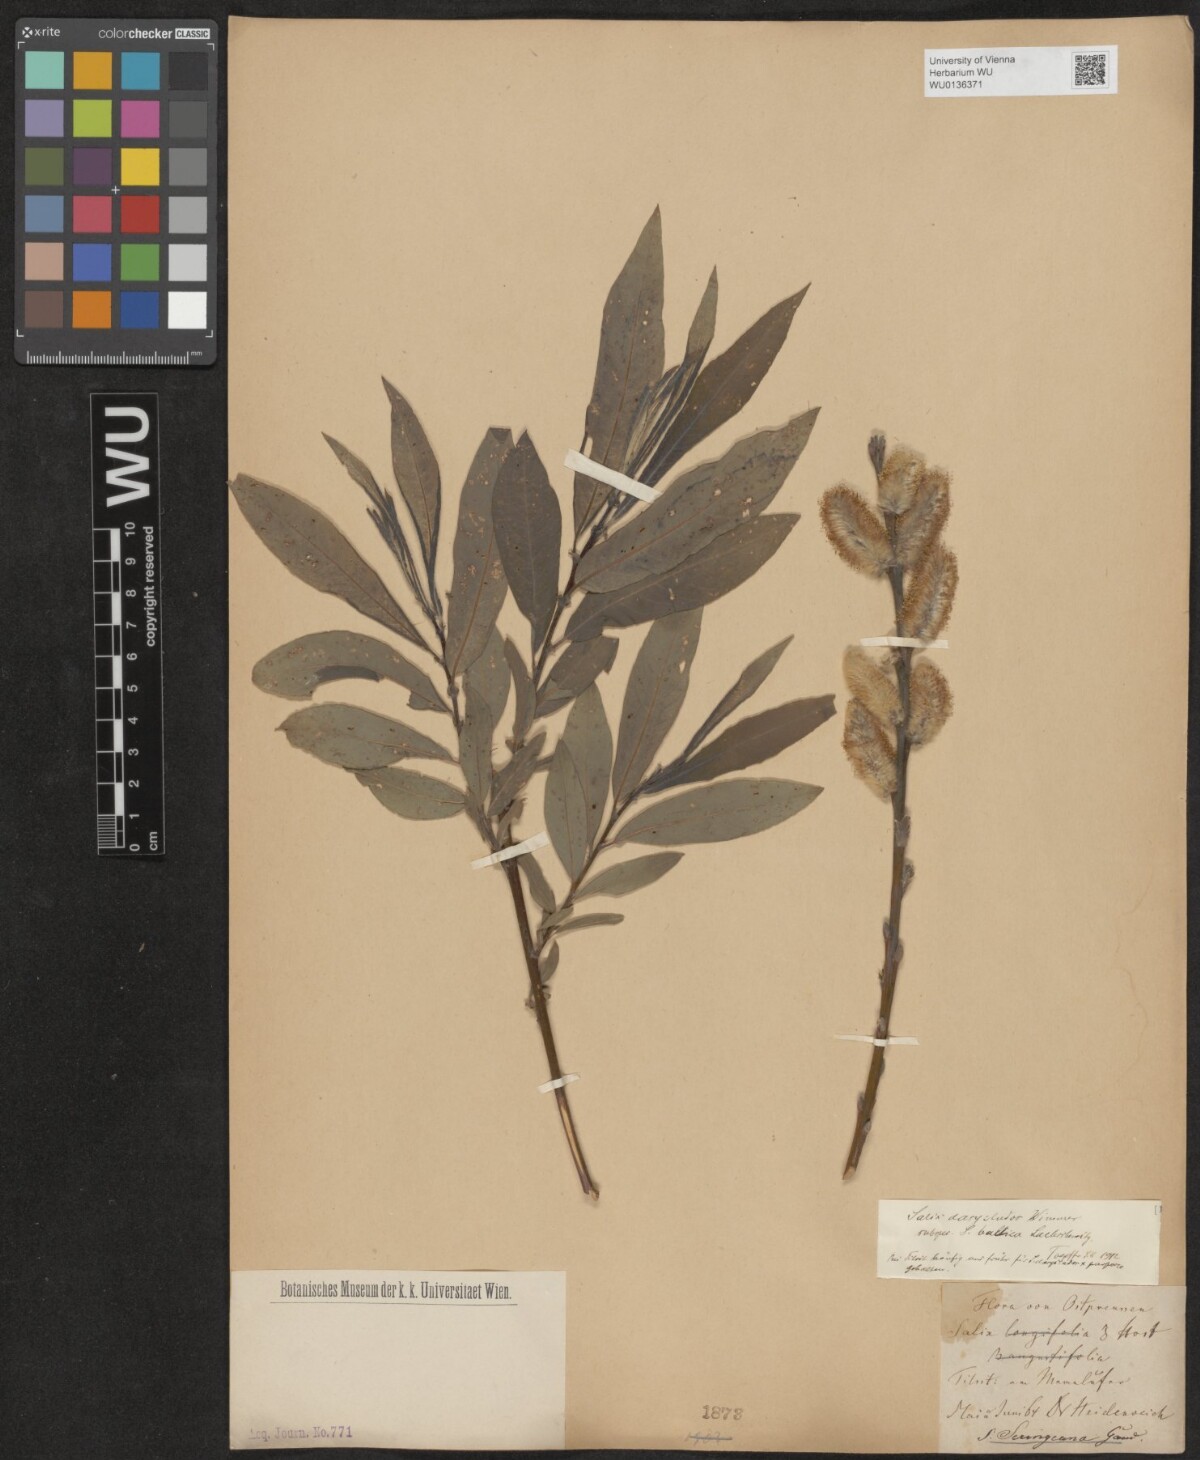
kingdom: Plantae
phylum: Tracheophyta
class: Magnoliopsida
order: Malpighiales
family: Salicaceae
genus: Salix
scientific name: Salix gmelinii
